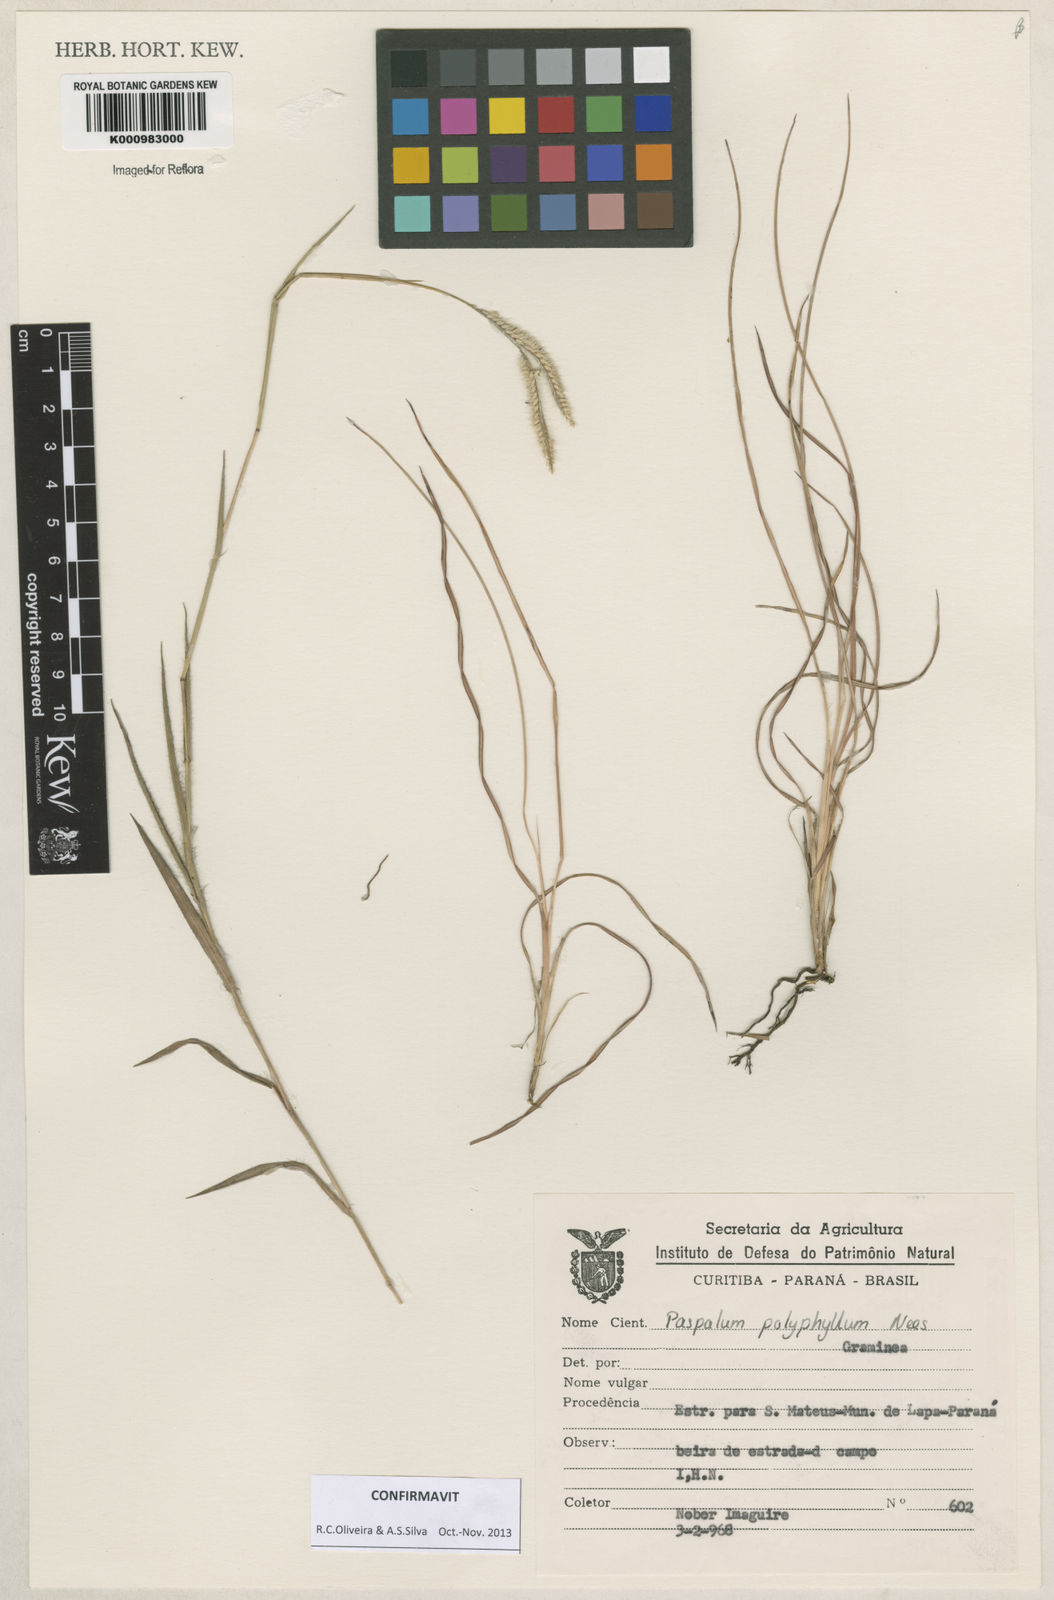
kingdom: Plantae
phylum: Tracheophyta
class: Liliopsida
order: Poales
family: Poaceae
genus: Paspalum
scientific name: Paspalum
